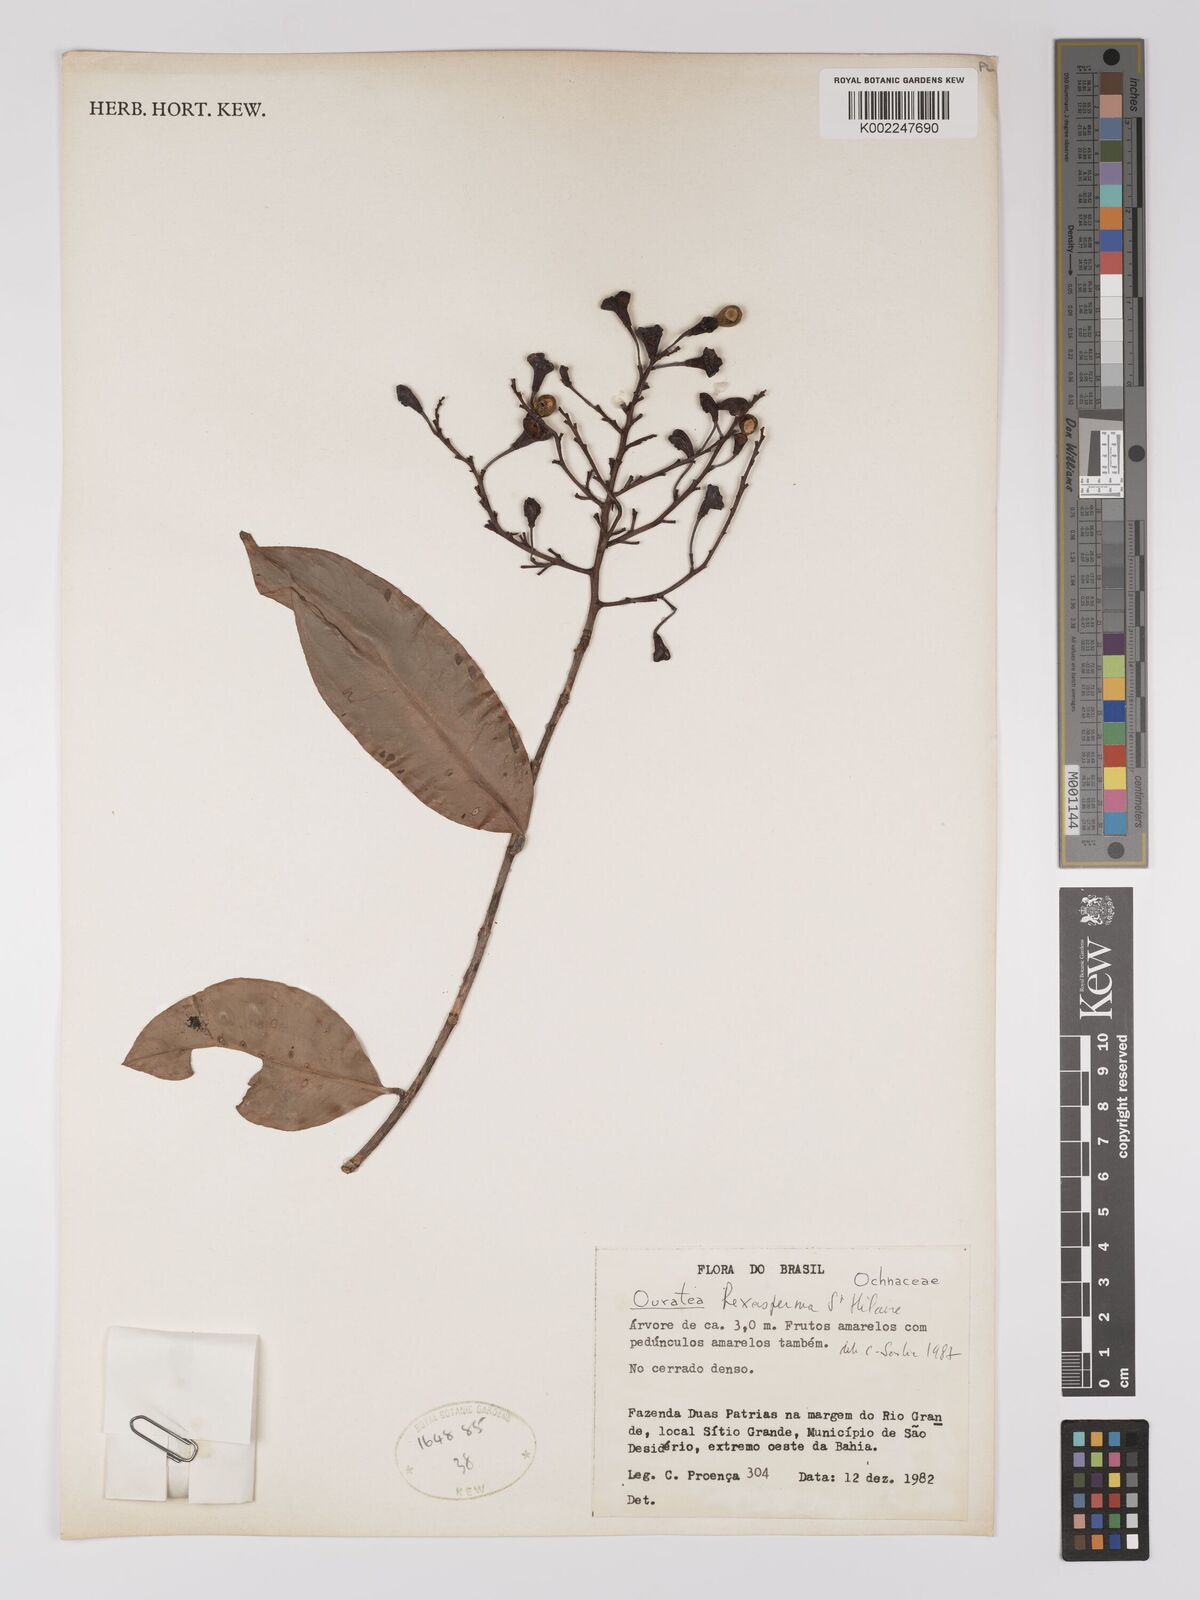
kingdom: Plantae
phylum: Tracheophyta
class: Magnoliopsida
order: Malpighiales
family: Ochnaceae
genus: Ouratea
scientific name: Ouratea hexasperma
